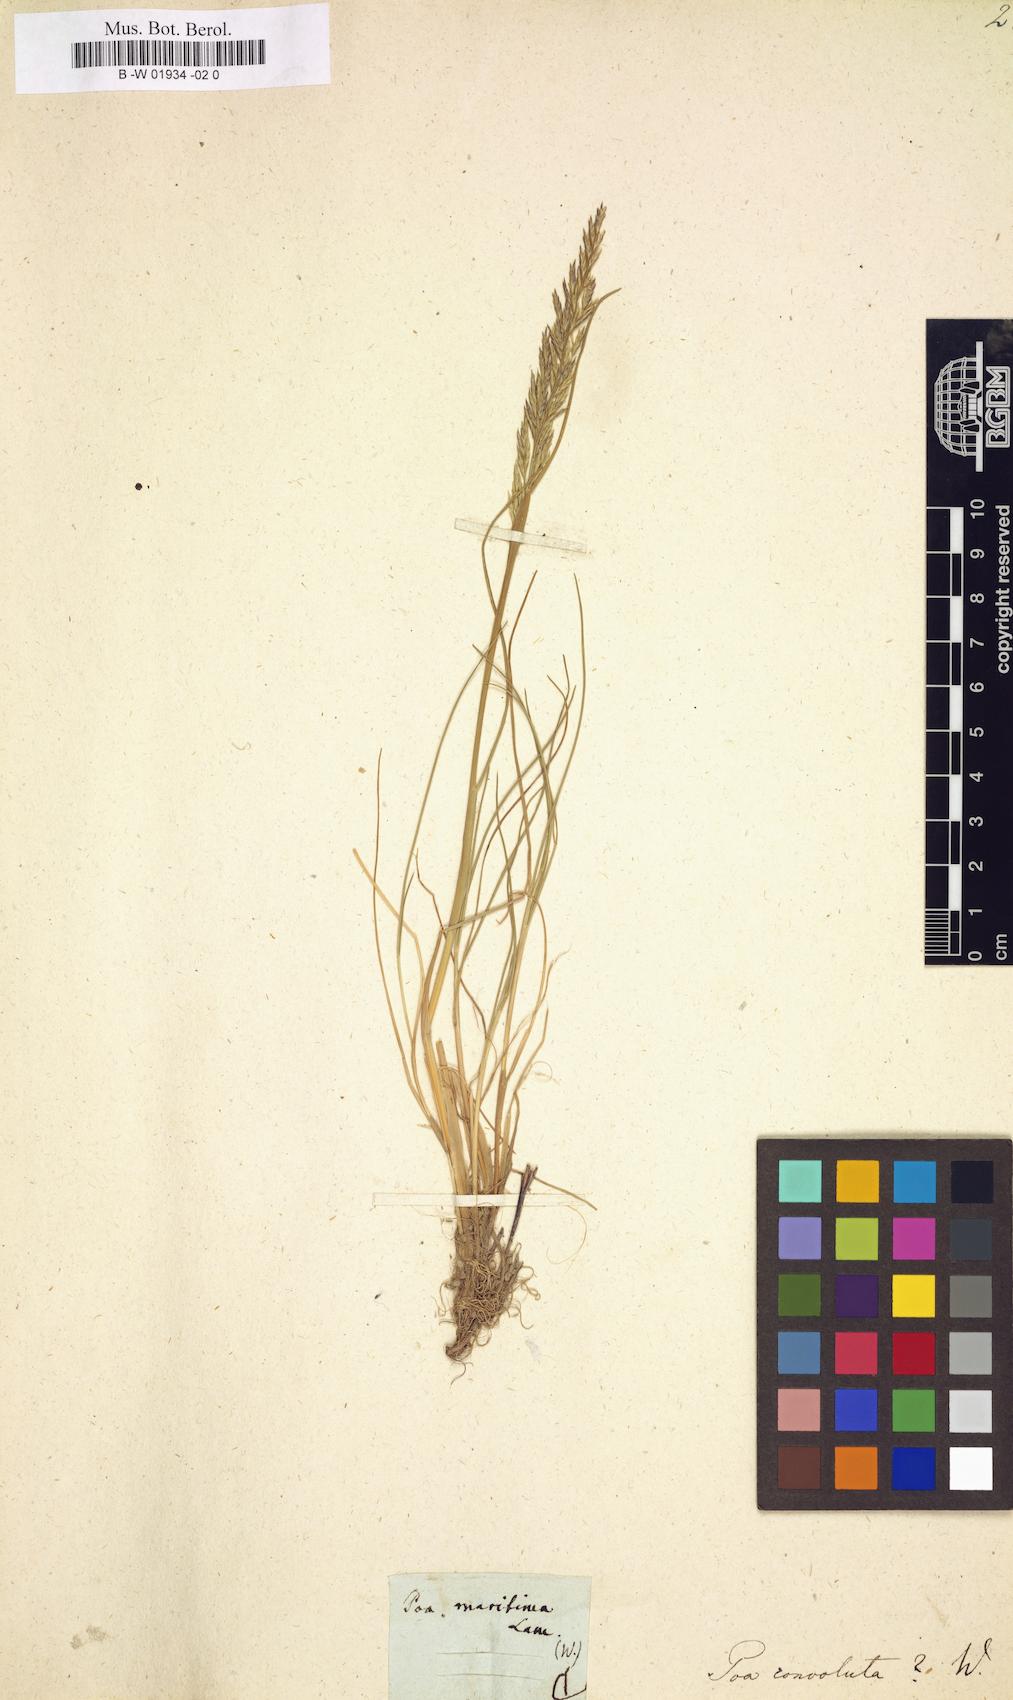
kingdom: Plantae
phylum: Tracheophyta
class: Liliopsida
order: Poales
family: Poaceae
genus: Poa
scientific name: Poa convoluta
